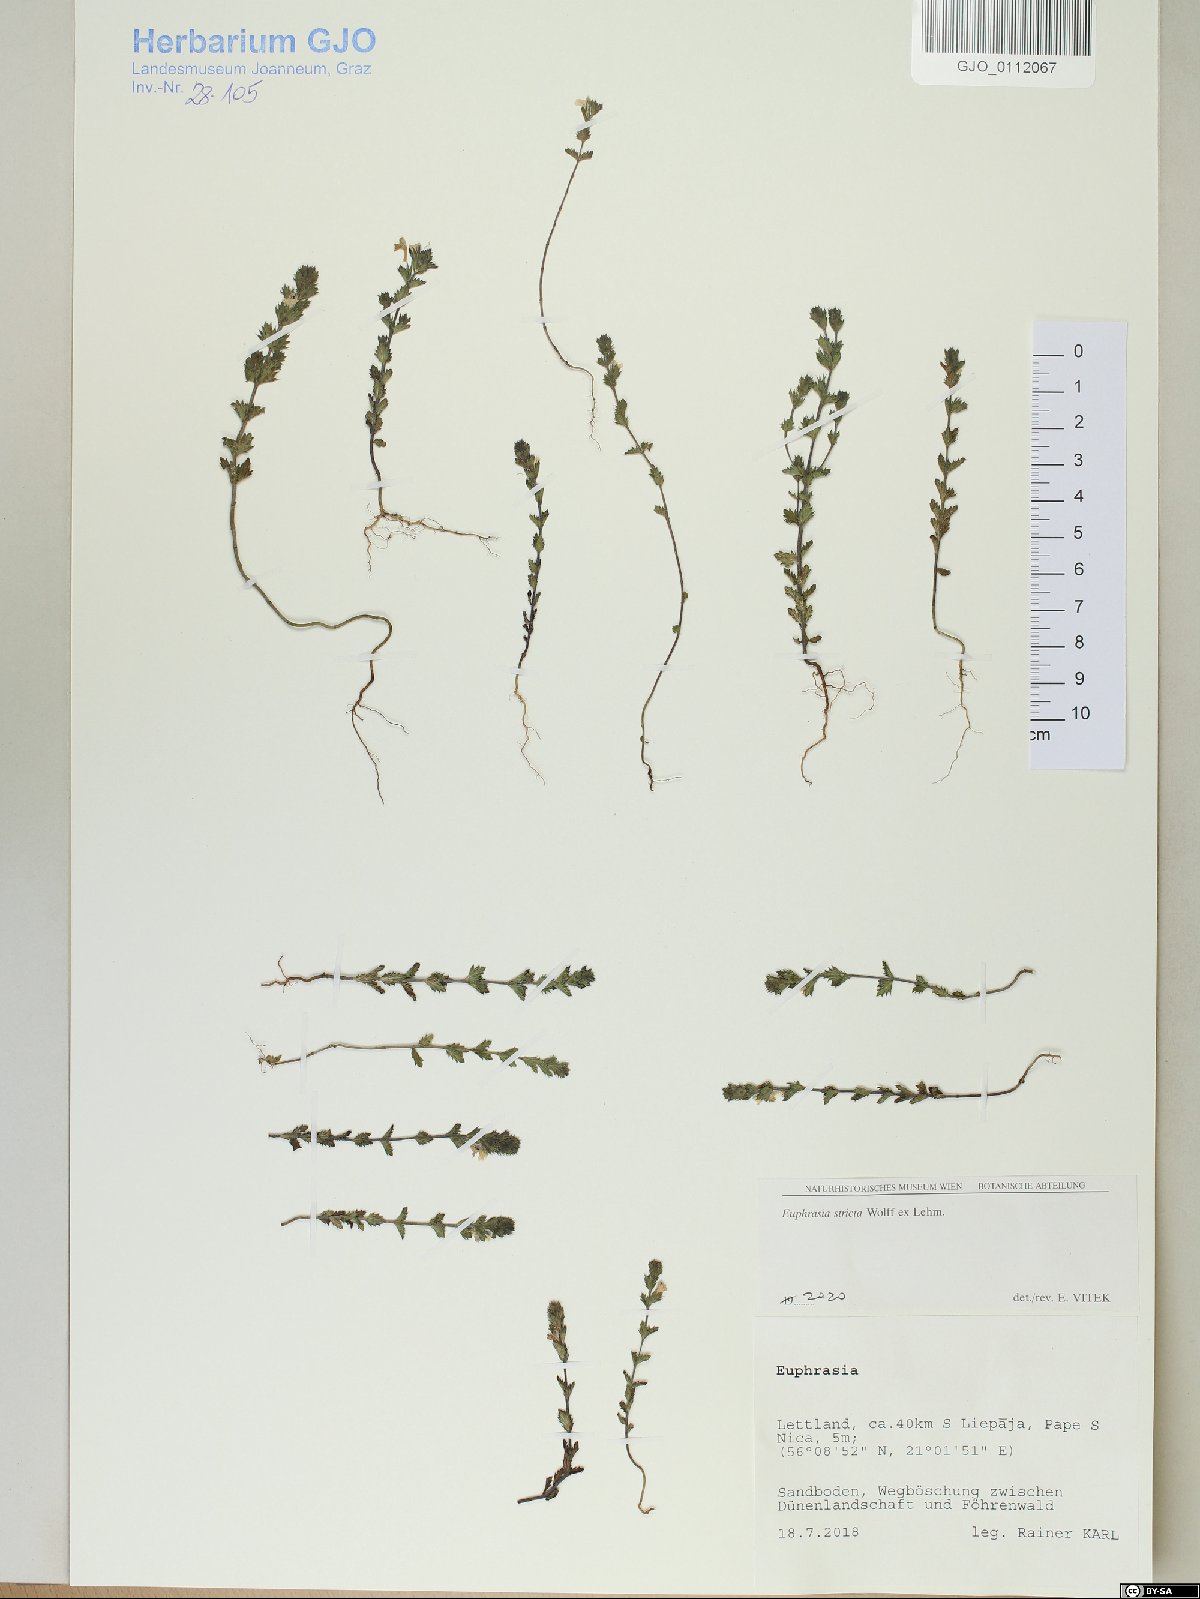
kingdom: Plantae
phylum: Tracheophyta
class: Magnoliopsida
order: Lamiales
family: Orobanchaceae
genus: Euphrasia
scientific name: Euphrasia stricta
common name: Drug eyebright
